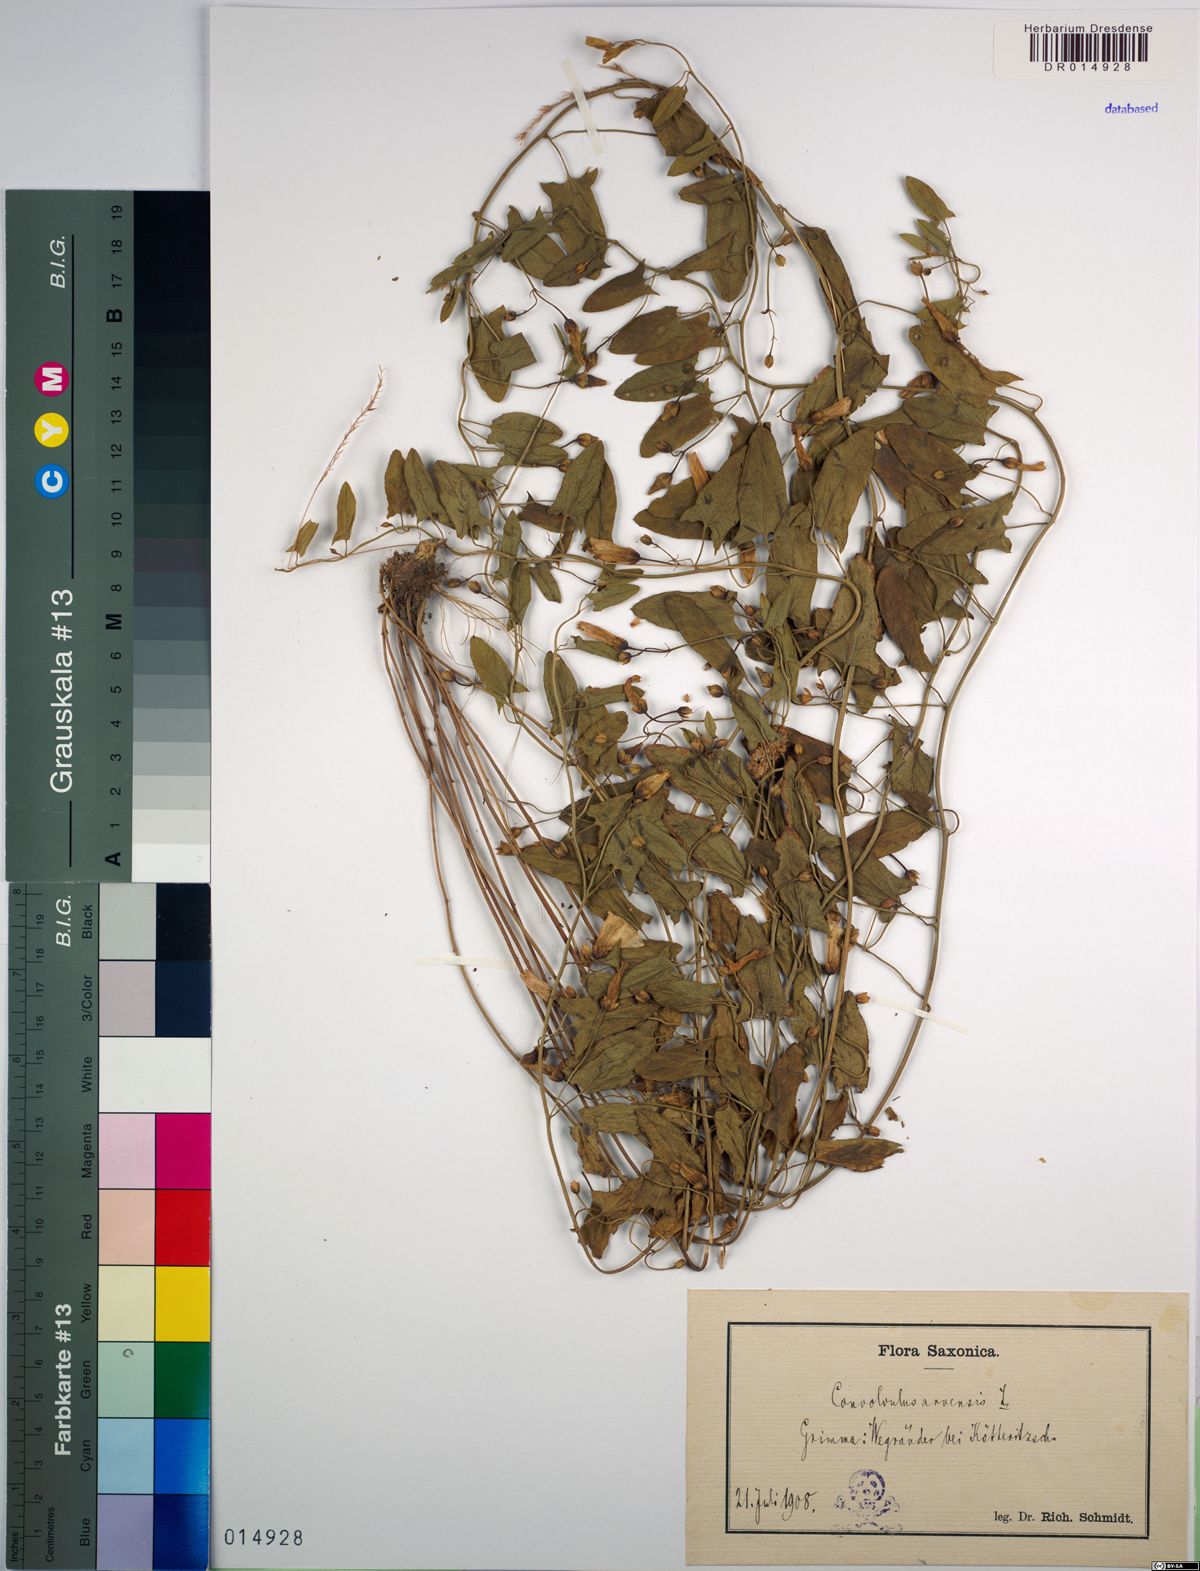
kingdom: Plantae
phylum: Tracheophyta
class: Magnoliopsida
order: Solanales
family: Convolvulaceae
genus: Convolvulus
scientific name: Convolvulus arvensis
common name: Field bindweed
